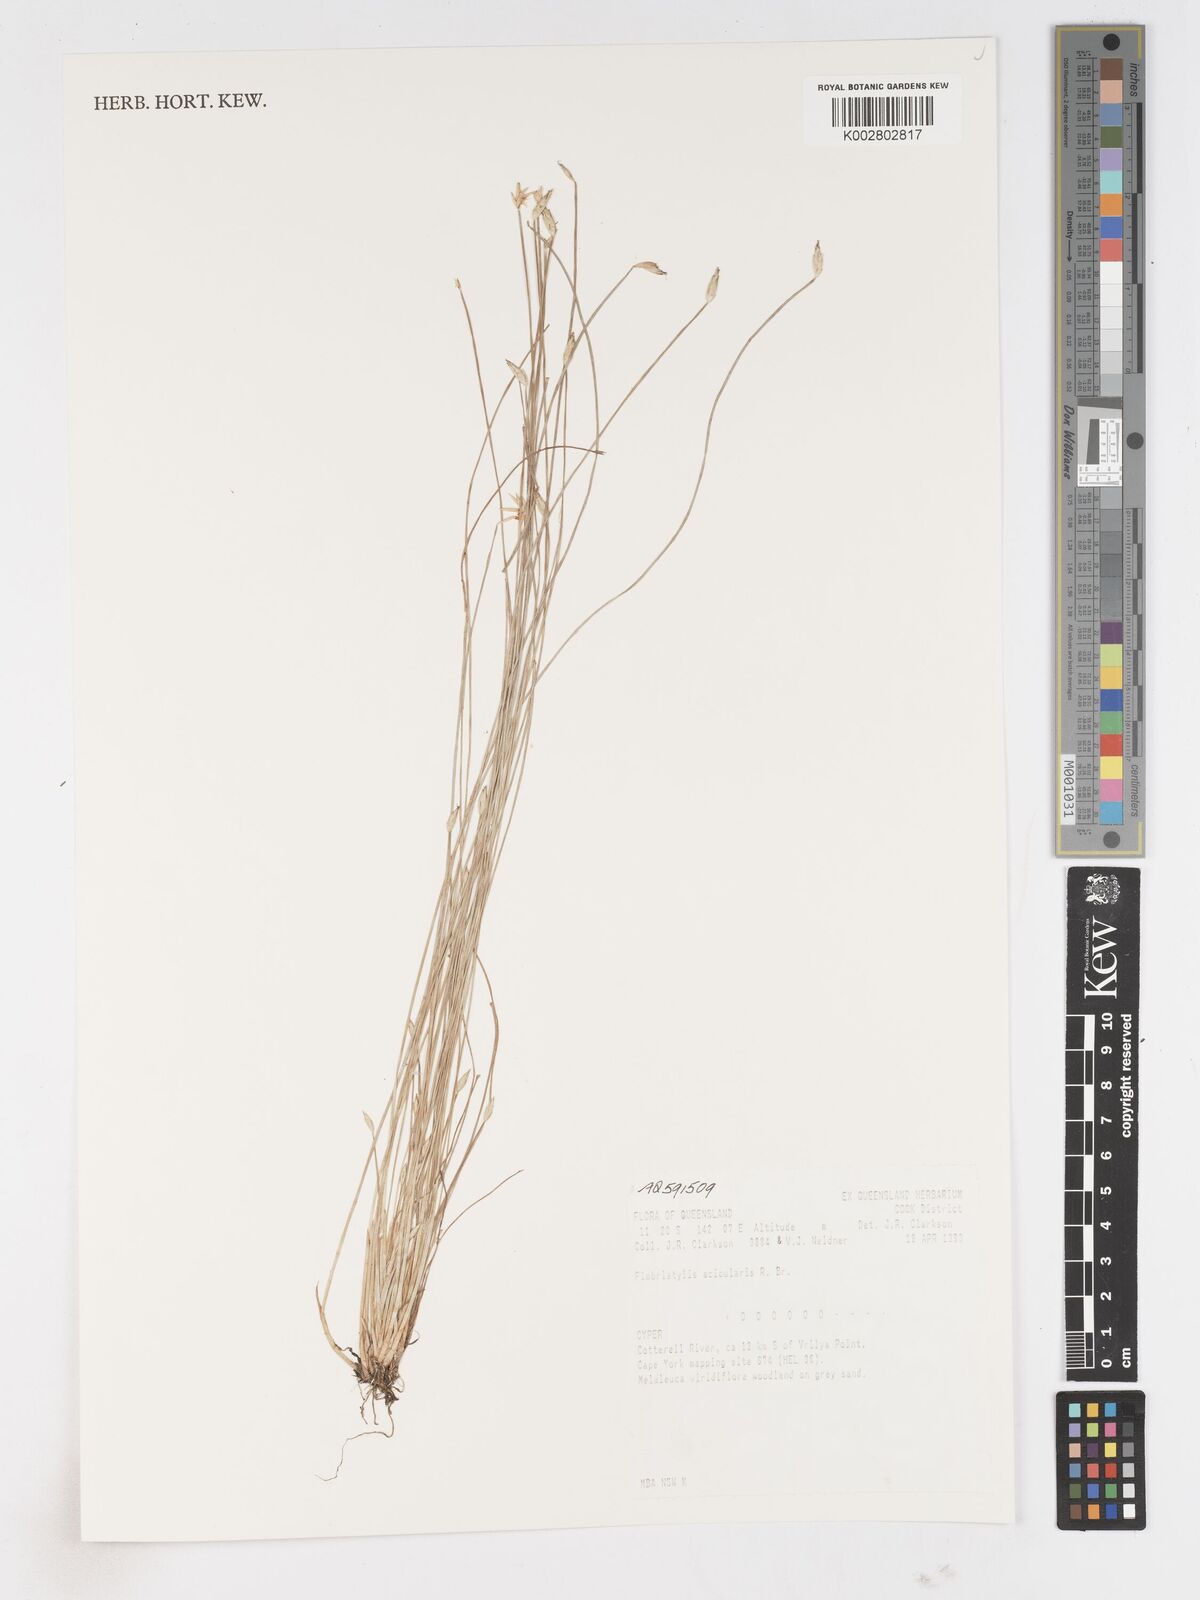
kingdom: Plantae
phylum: Tracheophyta
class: Liliopsida
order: Poales
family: Cyperaceae
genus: Fimbristylis
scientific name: Fimbristylis acicularis
